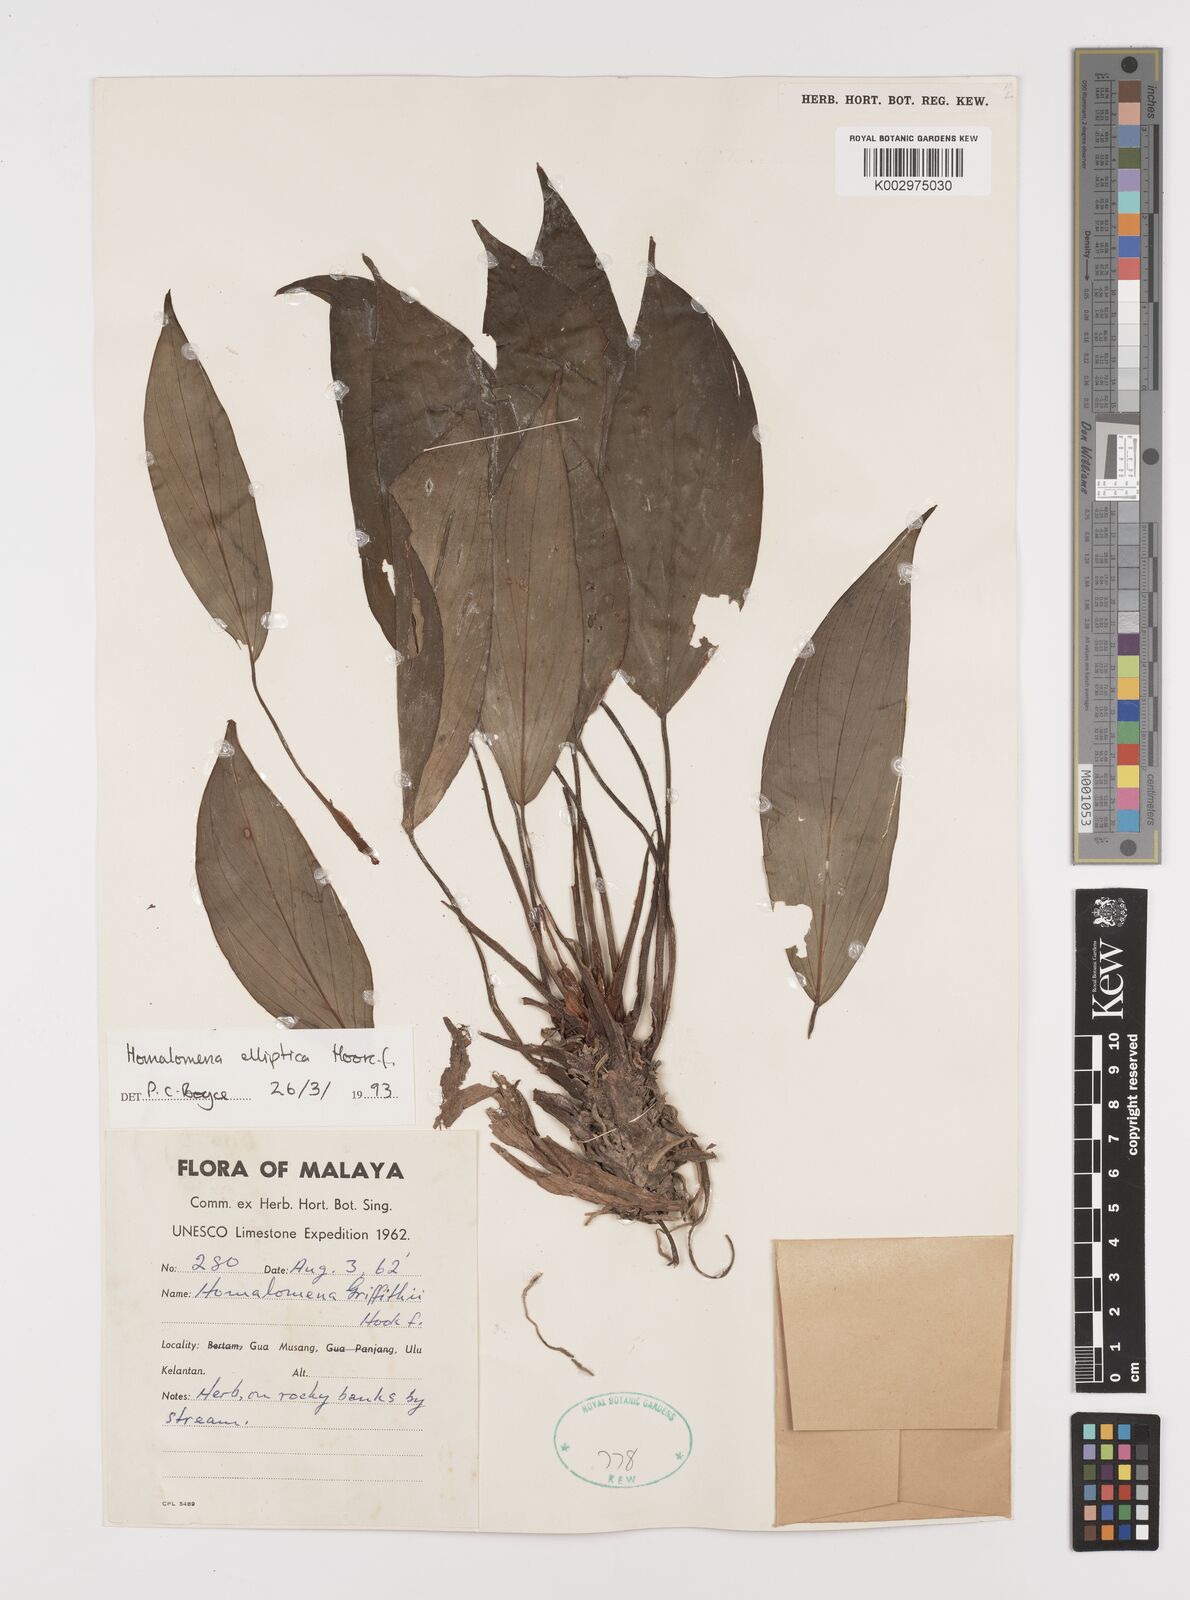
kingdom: Plantae
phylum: Tracheophyta
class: Liliopsida
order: Alismatales
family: Araceae
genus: Homalomena
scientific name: Homalomena griffithii
